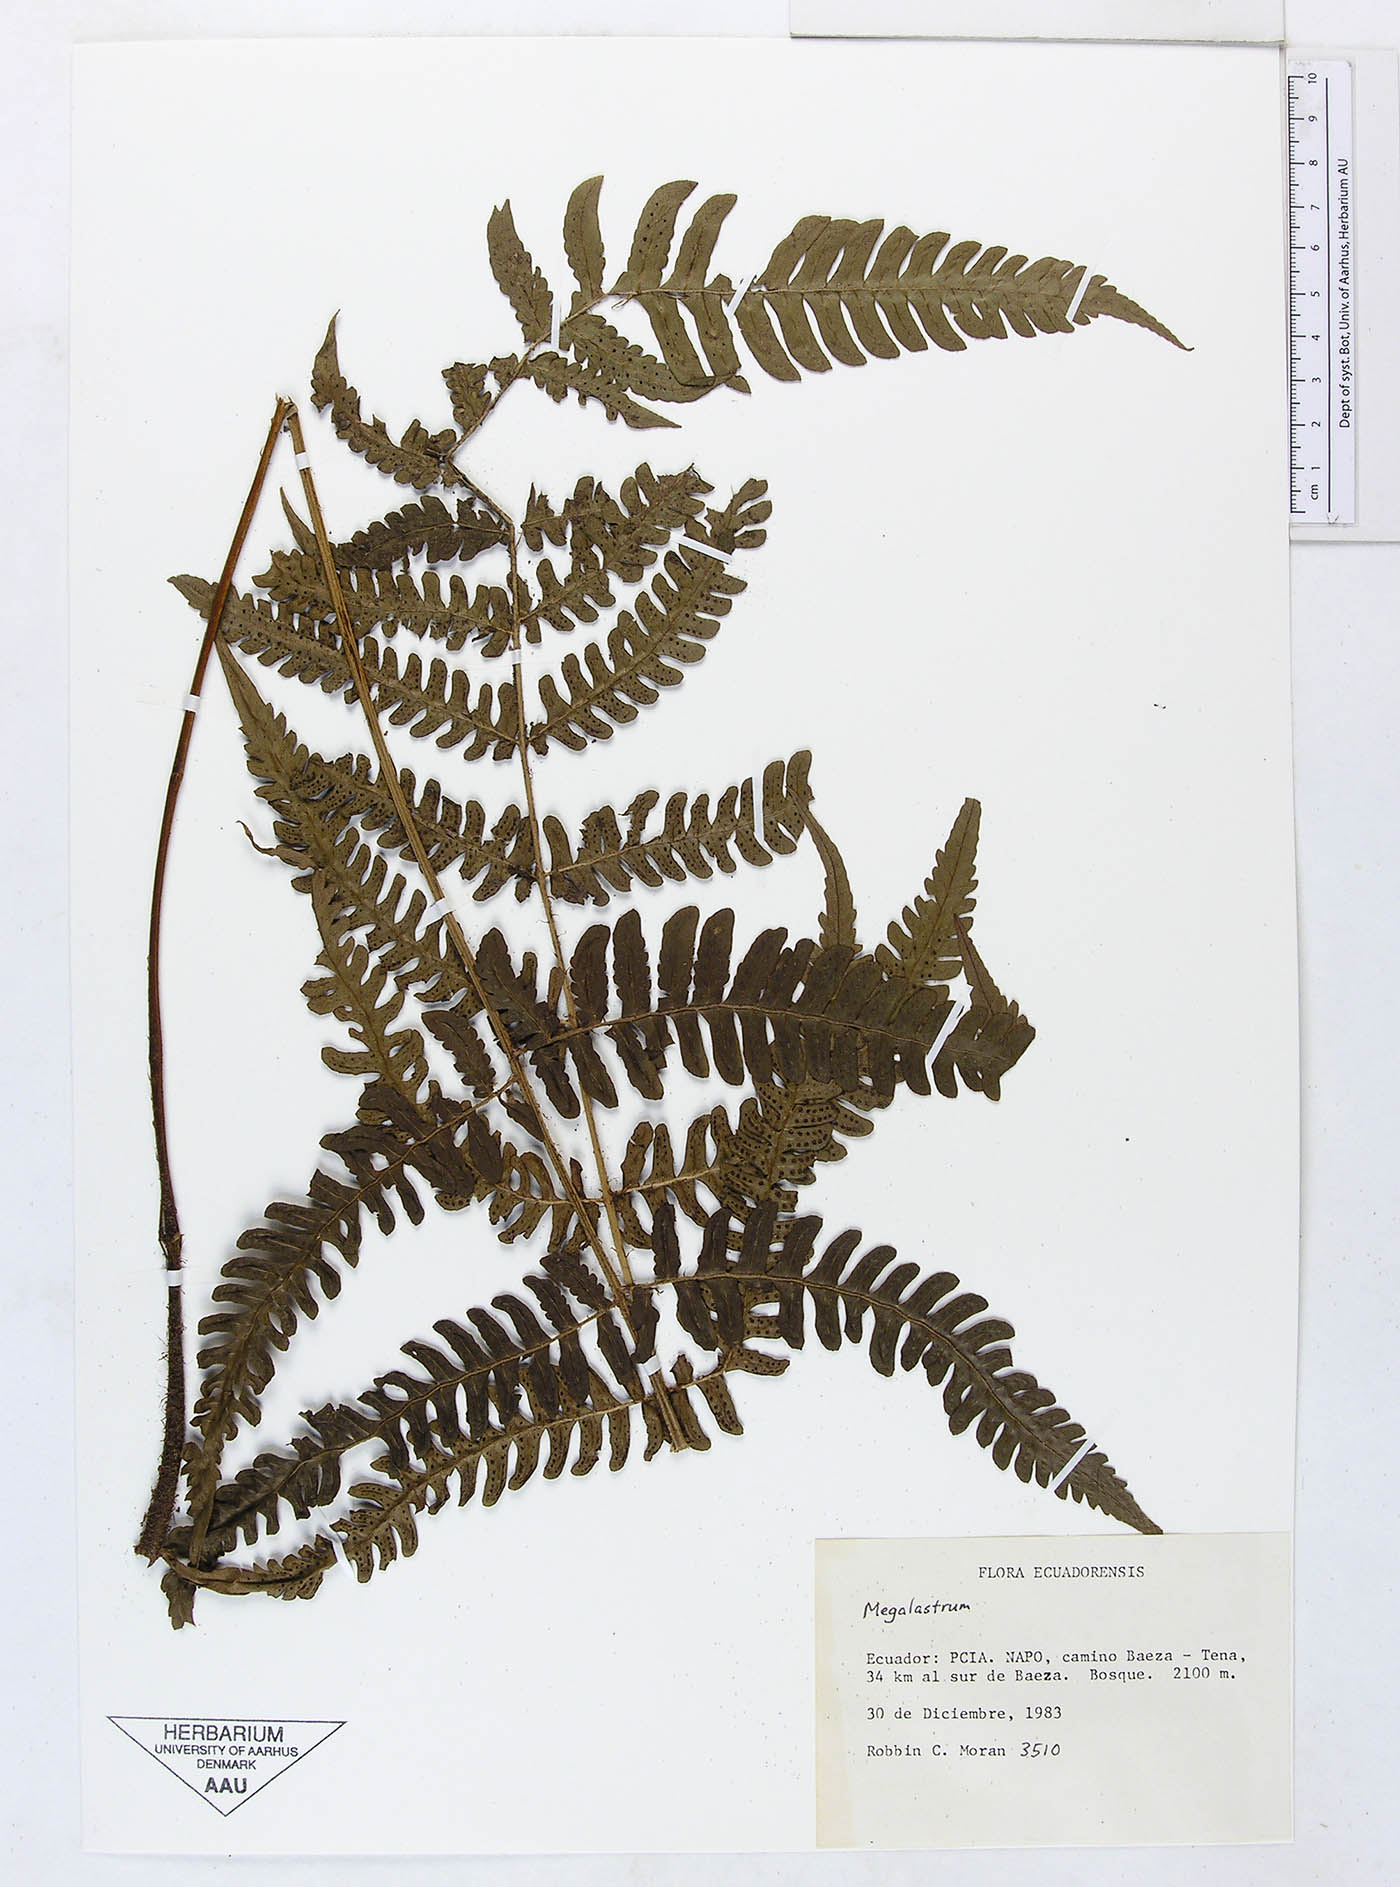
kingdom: Plantae
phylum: Tracheophyta
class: Polypodiopsida
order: Polypodiales
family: Dryopteridaceae
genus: Megalastrum
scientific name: Megalastrum biseriale
